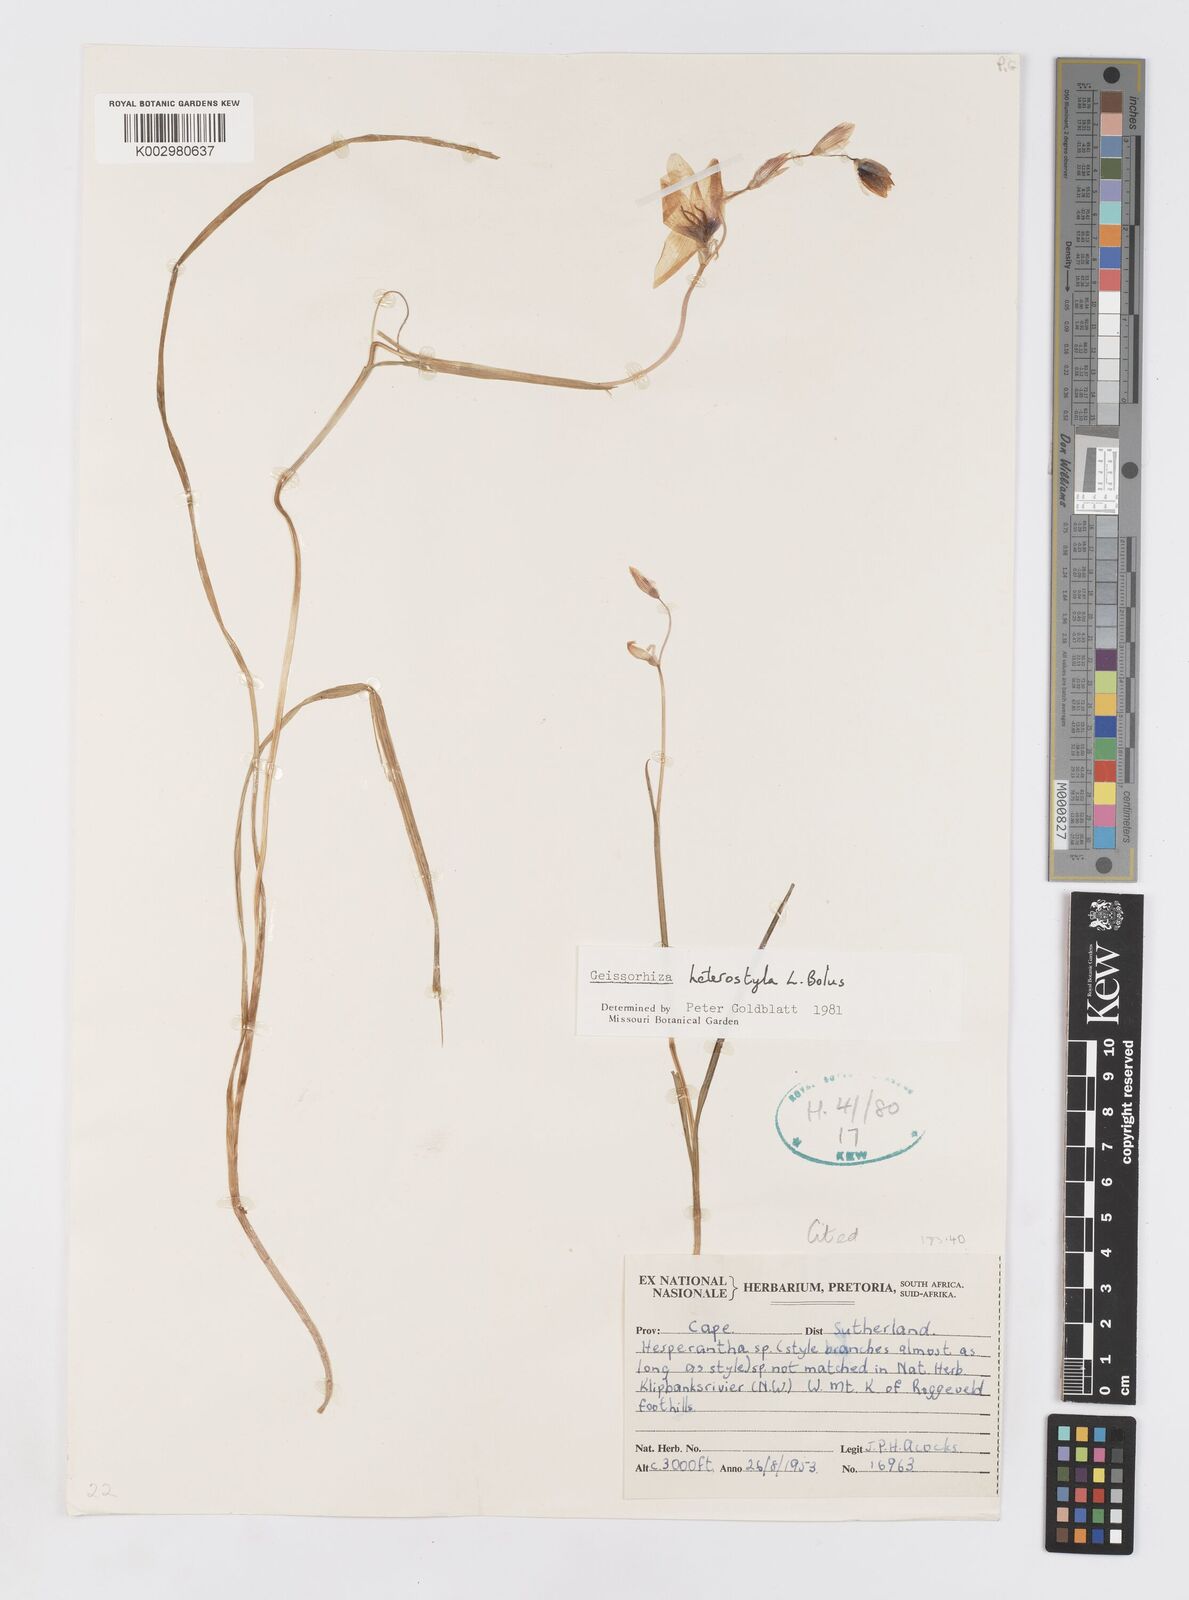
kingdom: Plantae
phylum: Tracheophyta
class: Liliopsida
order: Asparagales
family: Iridaceae
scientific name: Iridaceae
